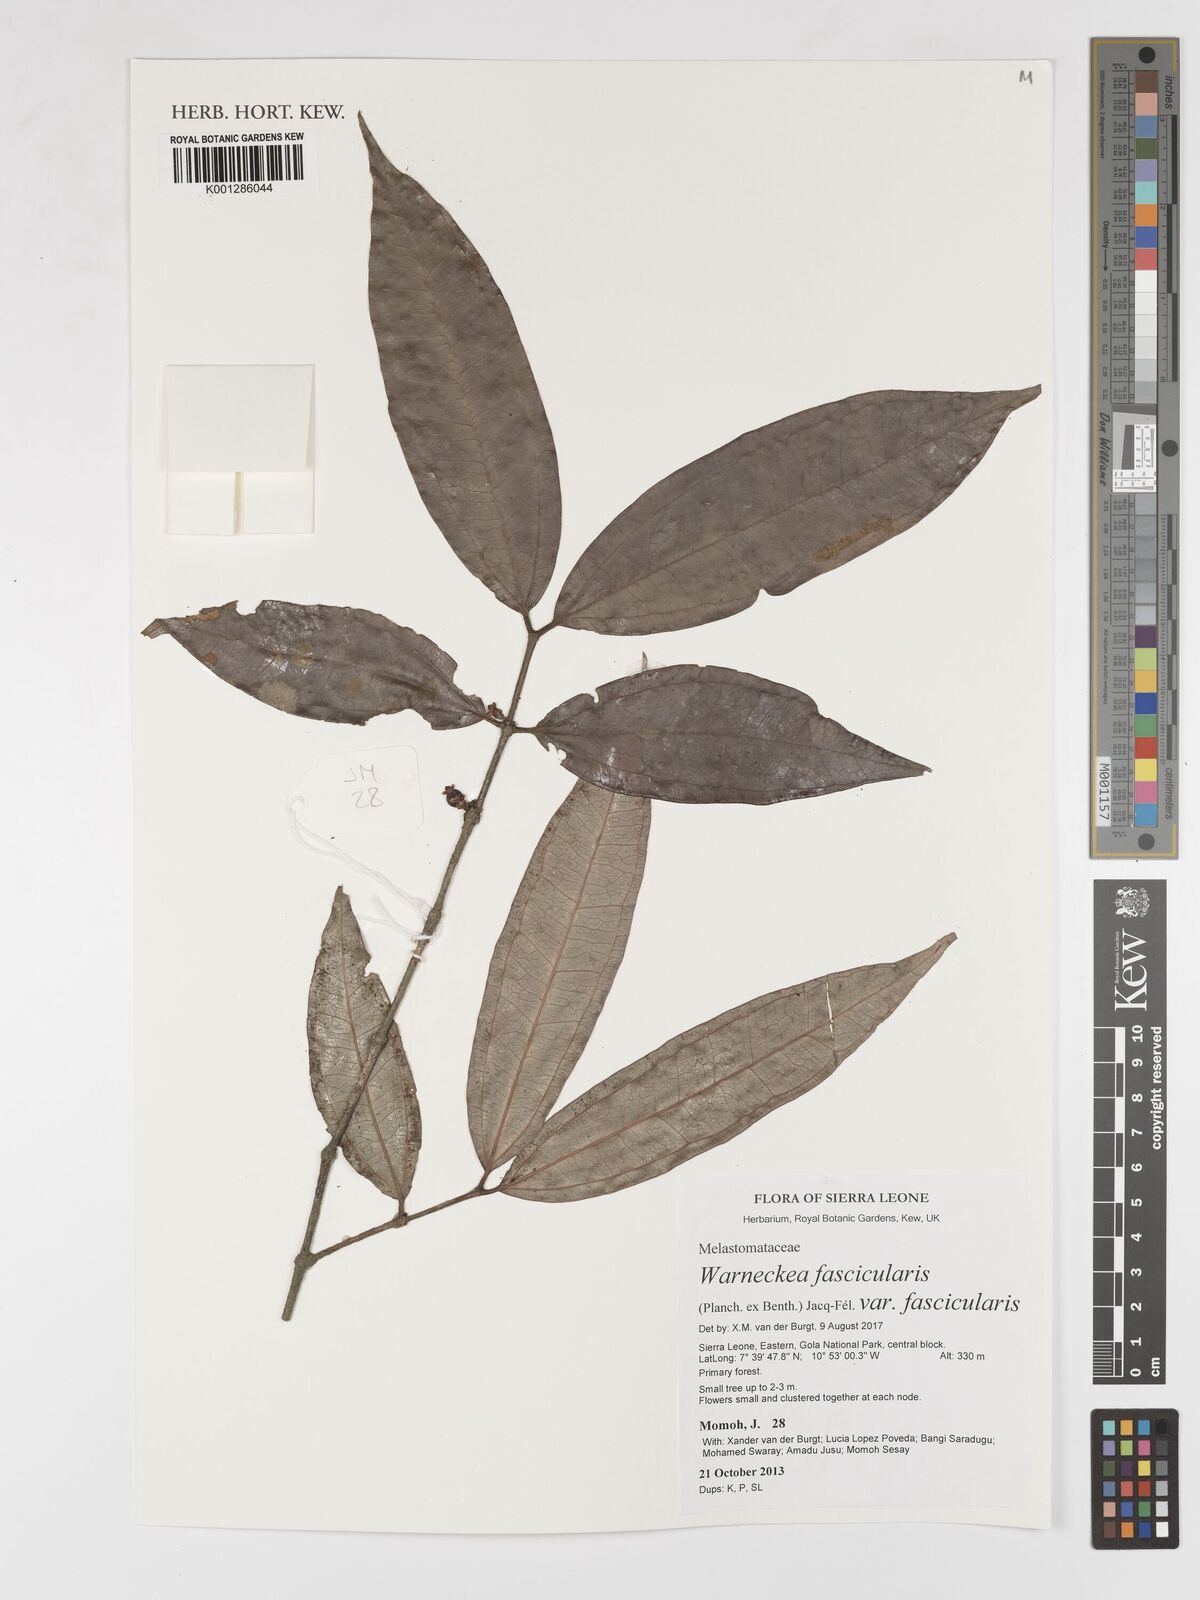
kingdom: Plantae
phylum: Tracheophyta
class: Magnoliopsida
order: Myrtales
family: Melastomataceae
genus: Warneckea
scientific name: Warneckea fascicularis
